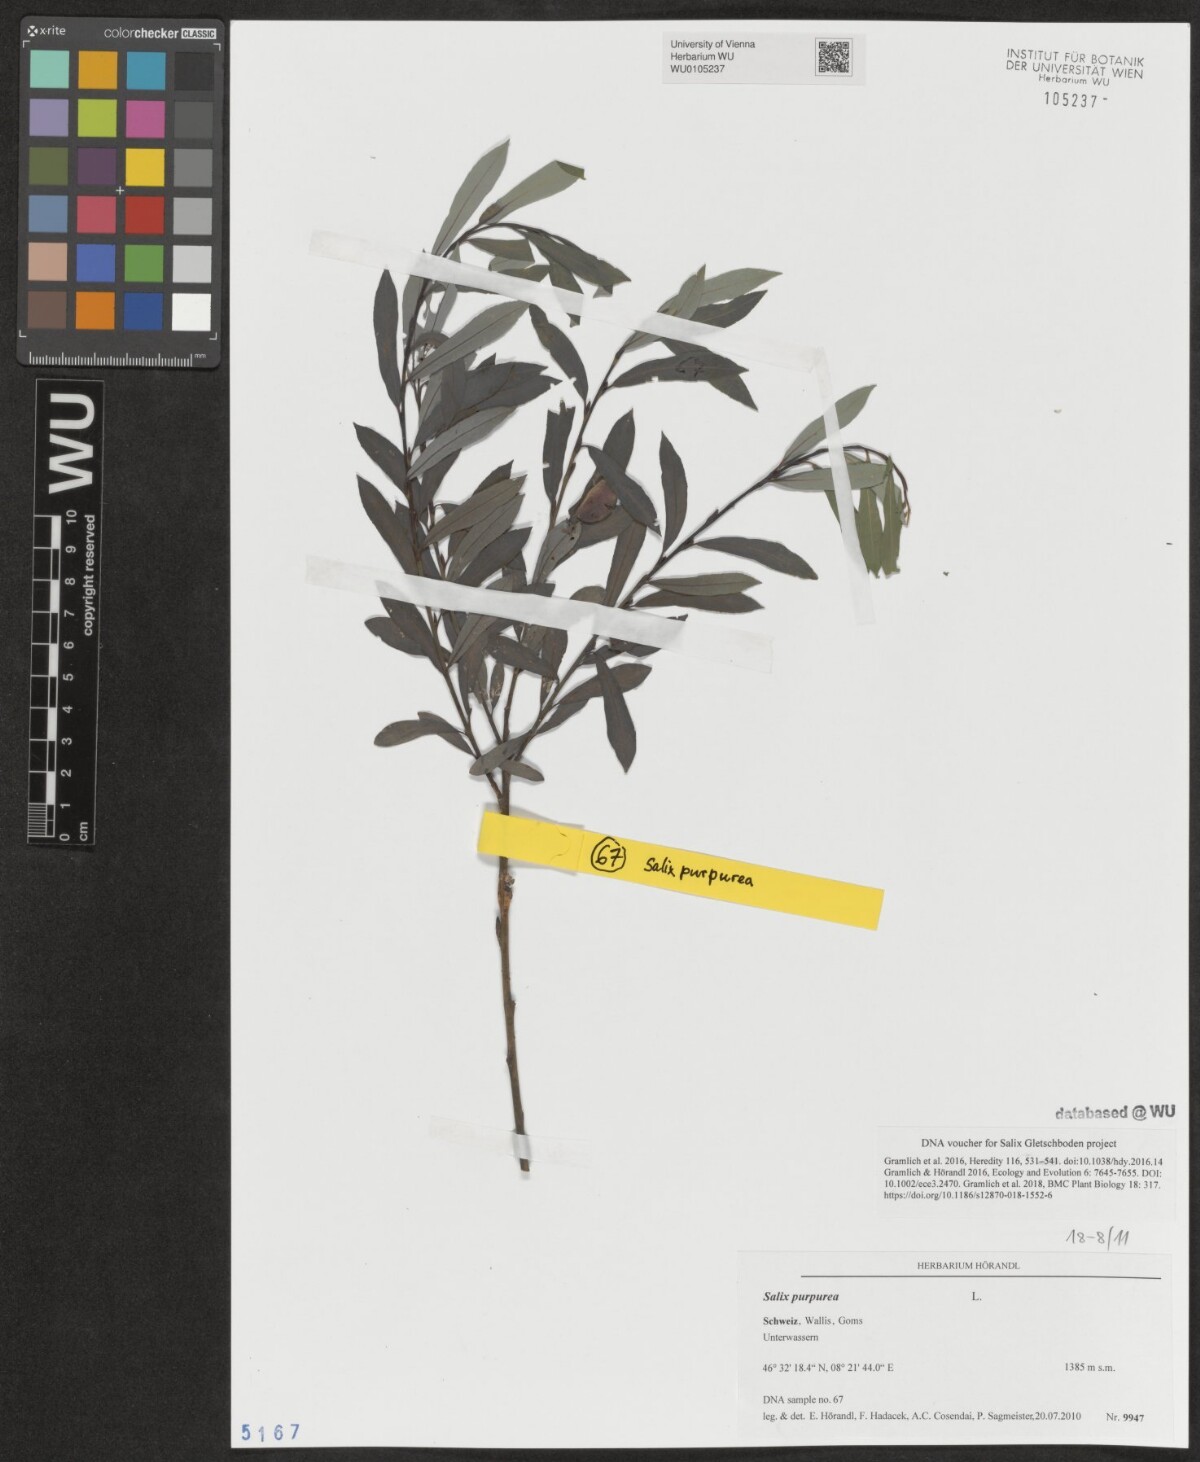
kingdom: Plantae
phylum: Tracheophyta
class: Magnoliopsida
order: Malpighiales
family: Salicaceae
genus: Salix
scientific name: Salix purpurea
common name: Purple willow
